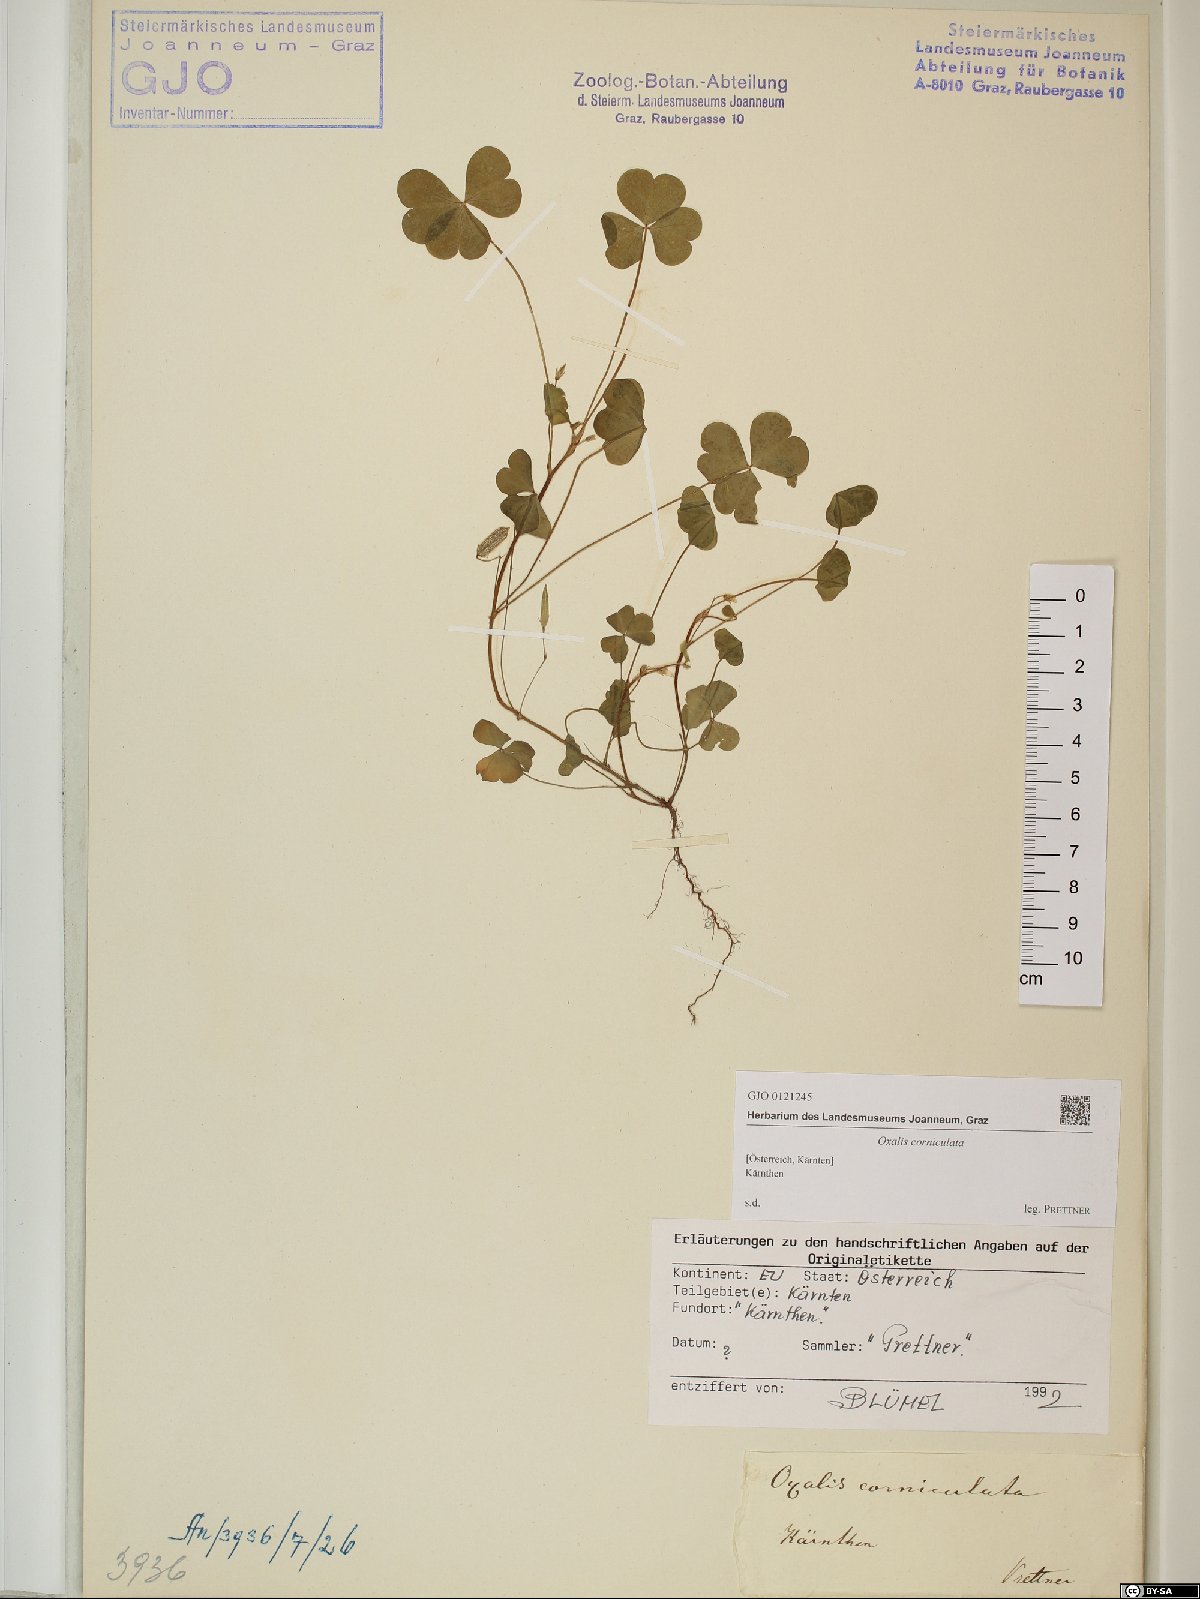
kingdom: Plantae
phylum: Tracheophyta
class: Magnoliopsida
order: Oxalidales
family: Oxalidaceae
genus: Oxalis
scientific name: Oxalis corniculata
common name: Procumbent yellow-sorrel
